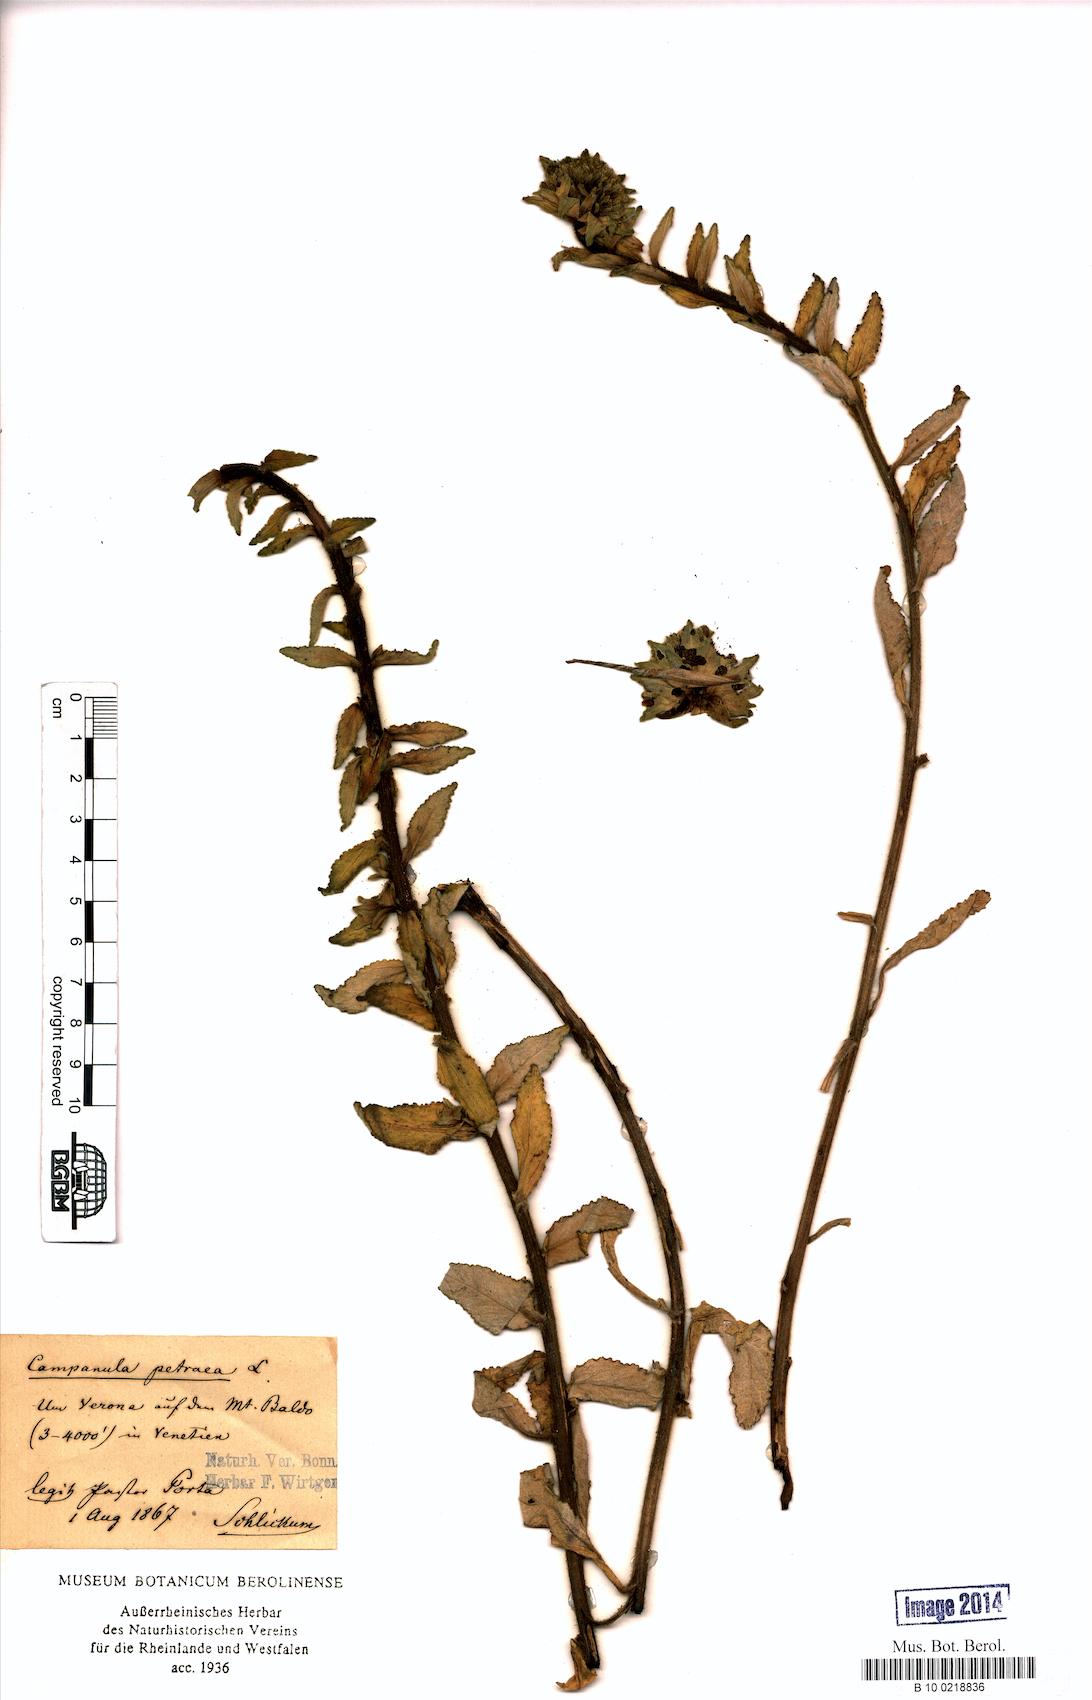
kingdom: Plantae
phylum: Tracheophyta
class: Magnoliopsida
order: Asterales
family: Campanulaceae
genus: Campanula
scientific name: Campanula petraea
